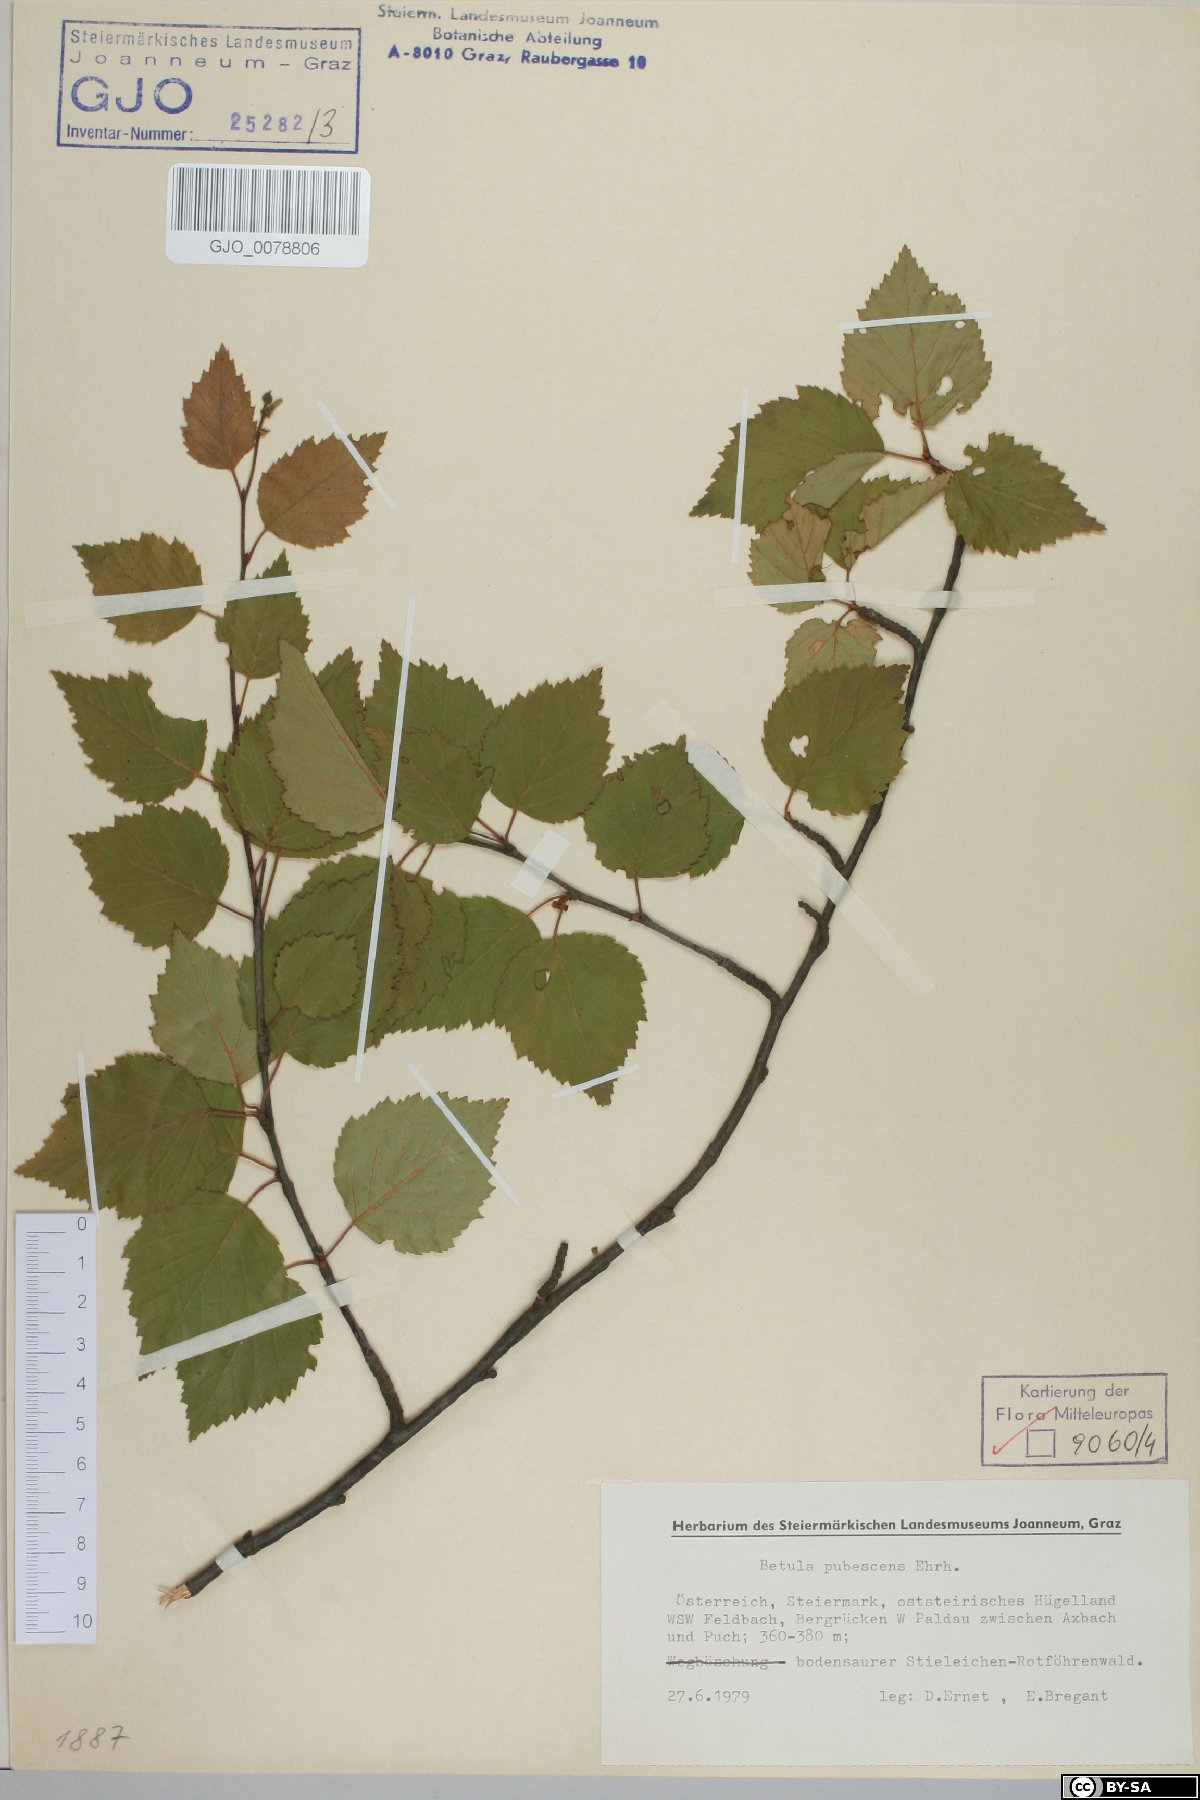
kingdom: Plantae
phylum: Tracheophyta
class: Magnoliopsida
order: Fagales
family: Betulaceae
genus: Betula
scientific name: Betula pubescens
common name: Downy birch
